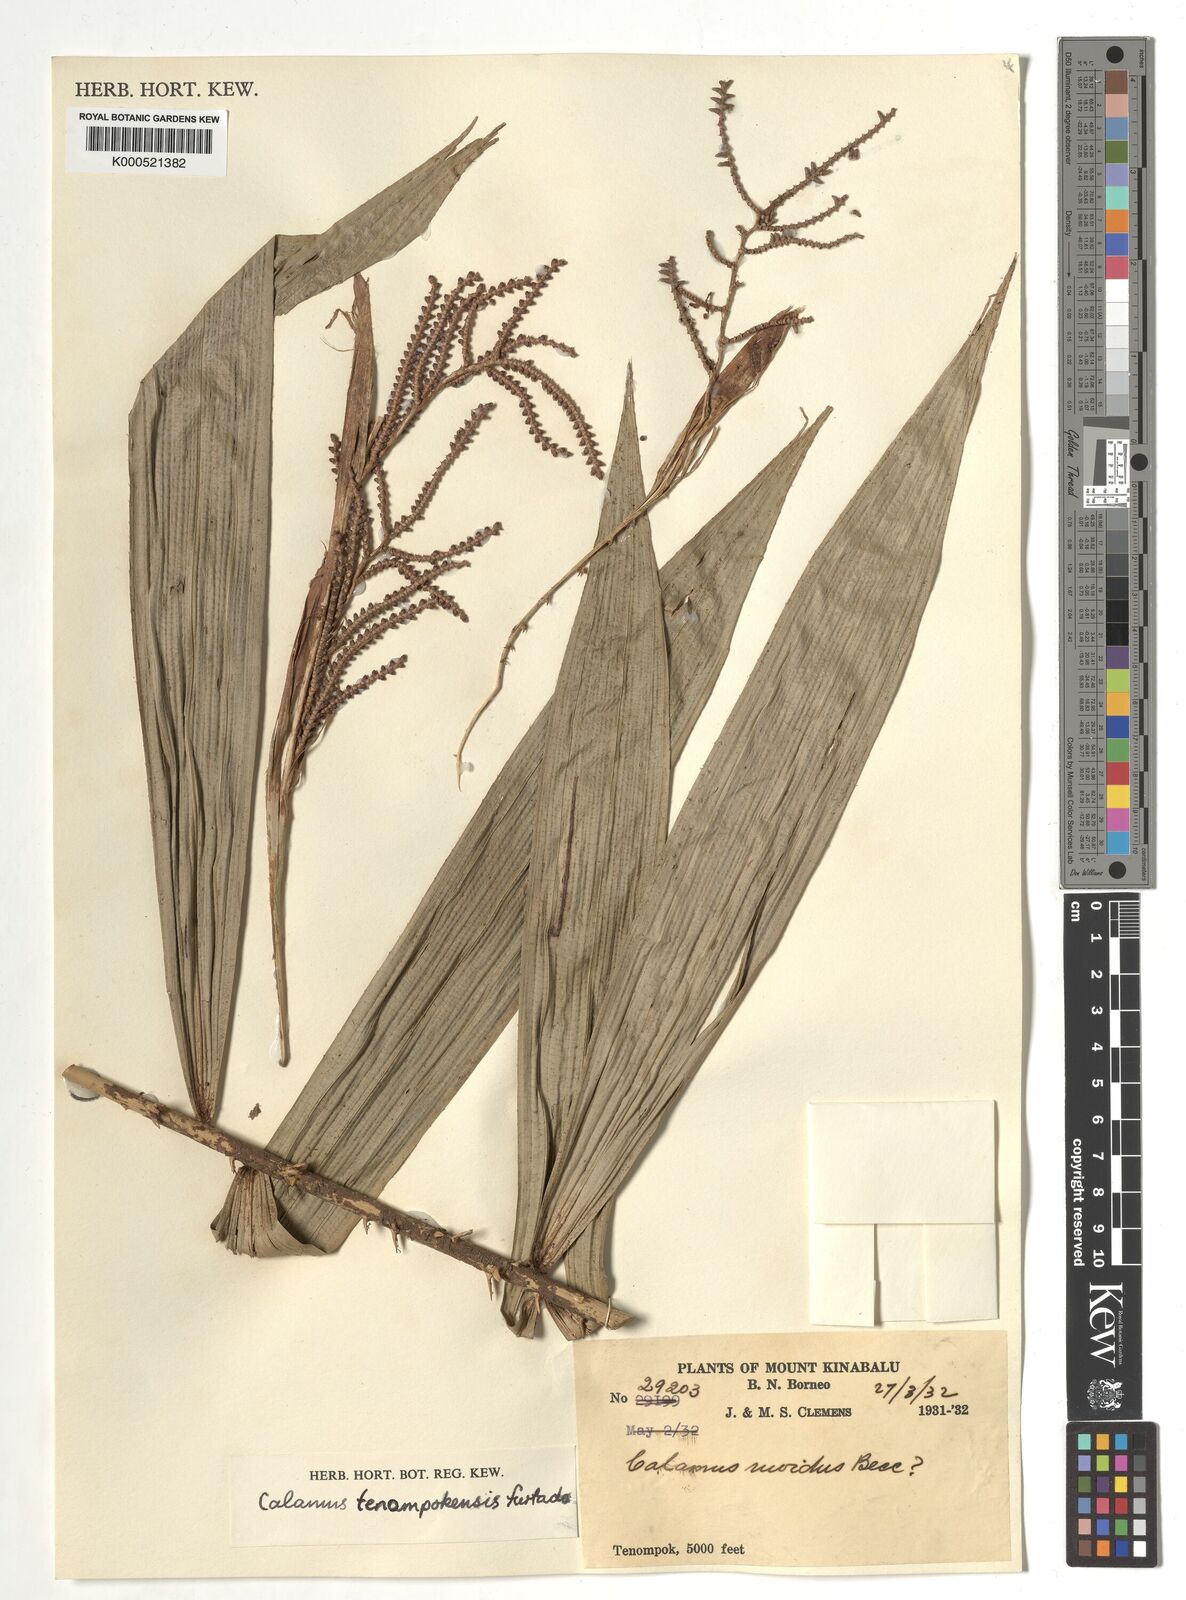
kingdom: Plantae
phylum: Tracheophyta
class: Liliopsida
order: Arecales
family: Arecaceae
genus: Calamus
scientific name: Calamus tenompokensis
